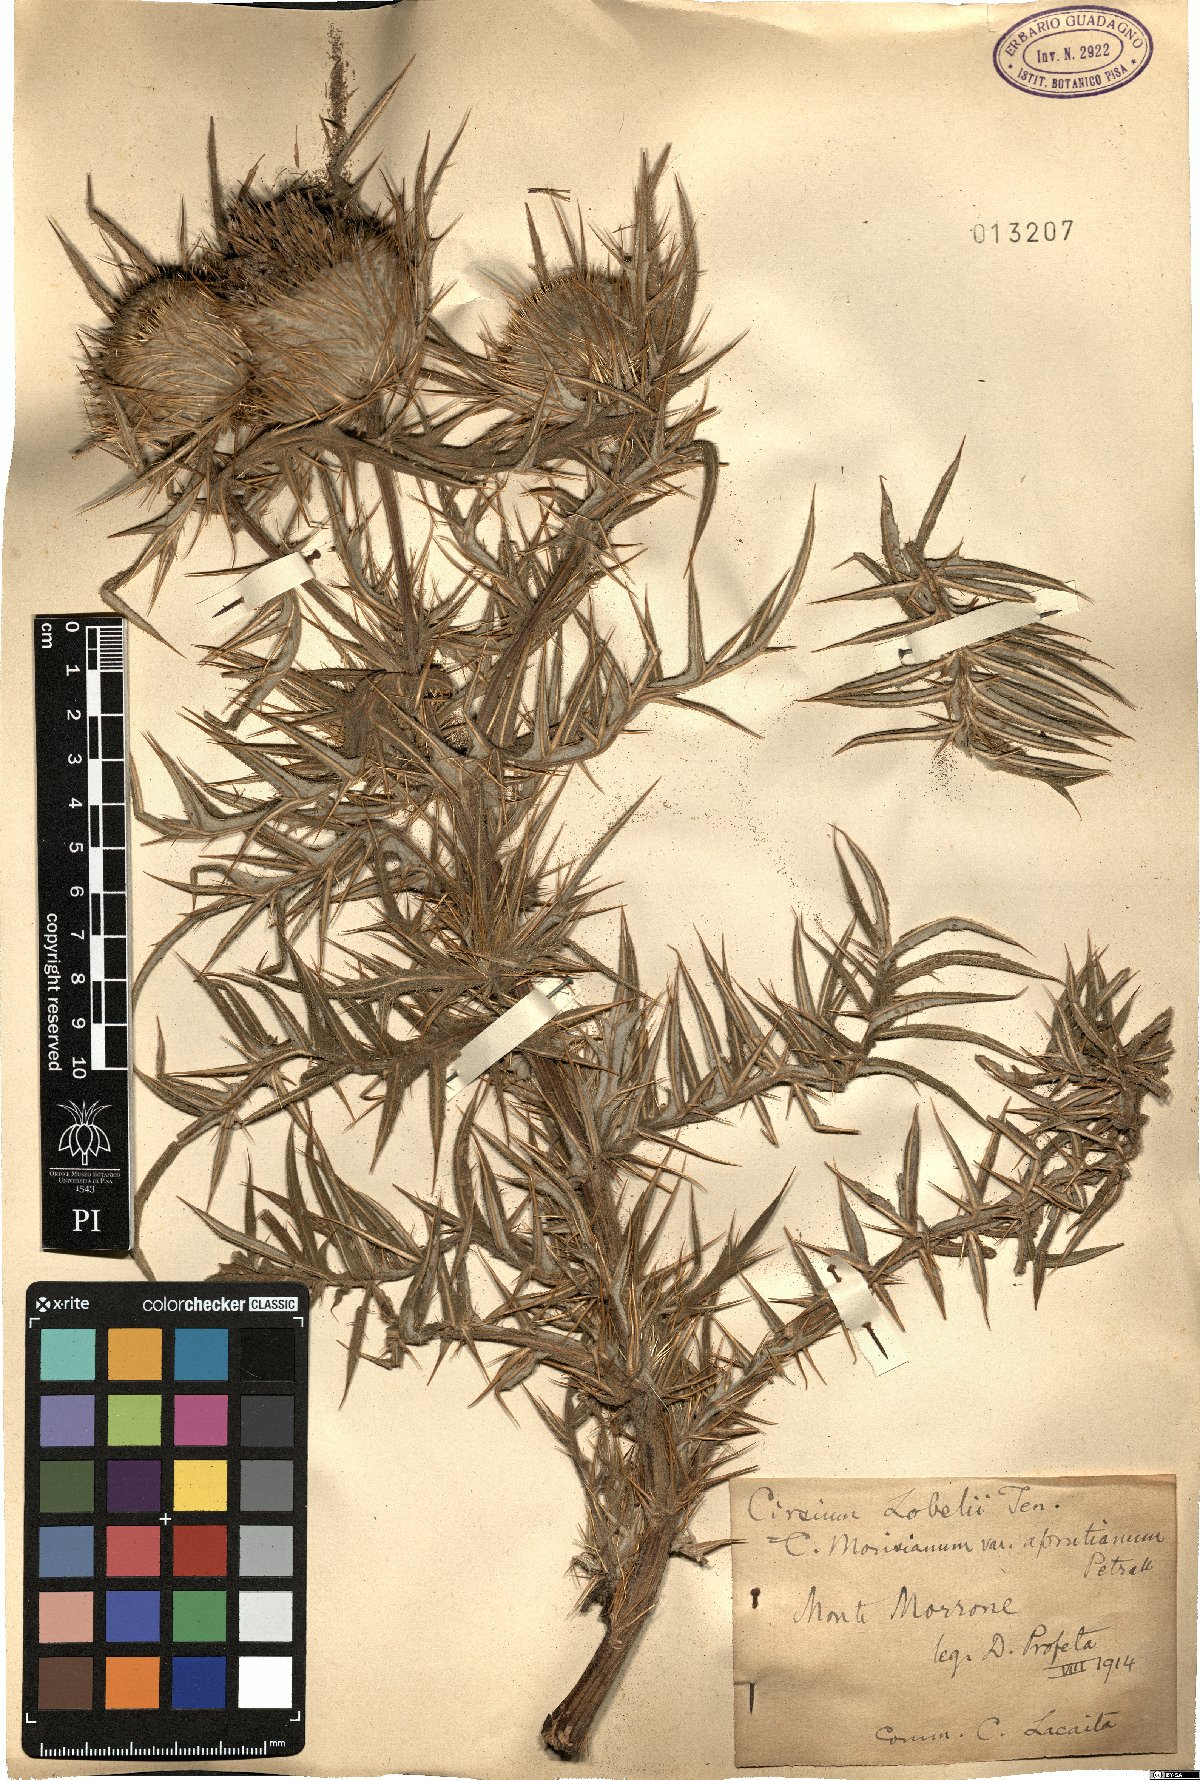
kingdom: Plantae
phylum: Tracheophyta
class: Magnoliopsida
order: Asterales
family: Asteraceae
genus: Lophiolepis
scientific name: Lophiolepis lobelii
